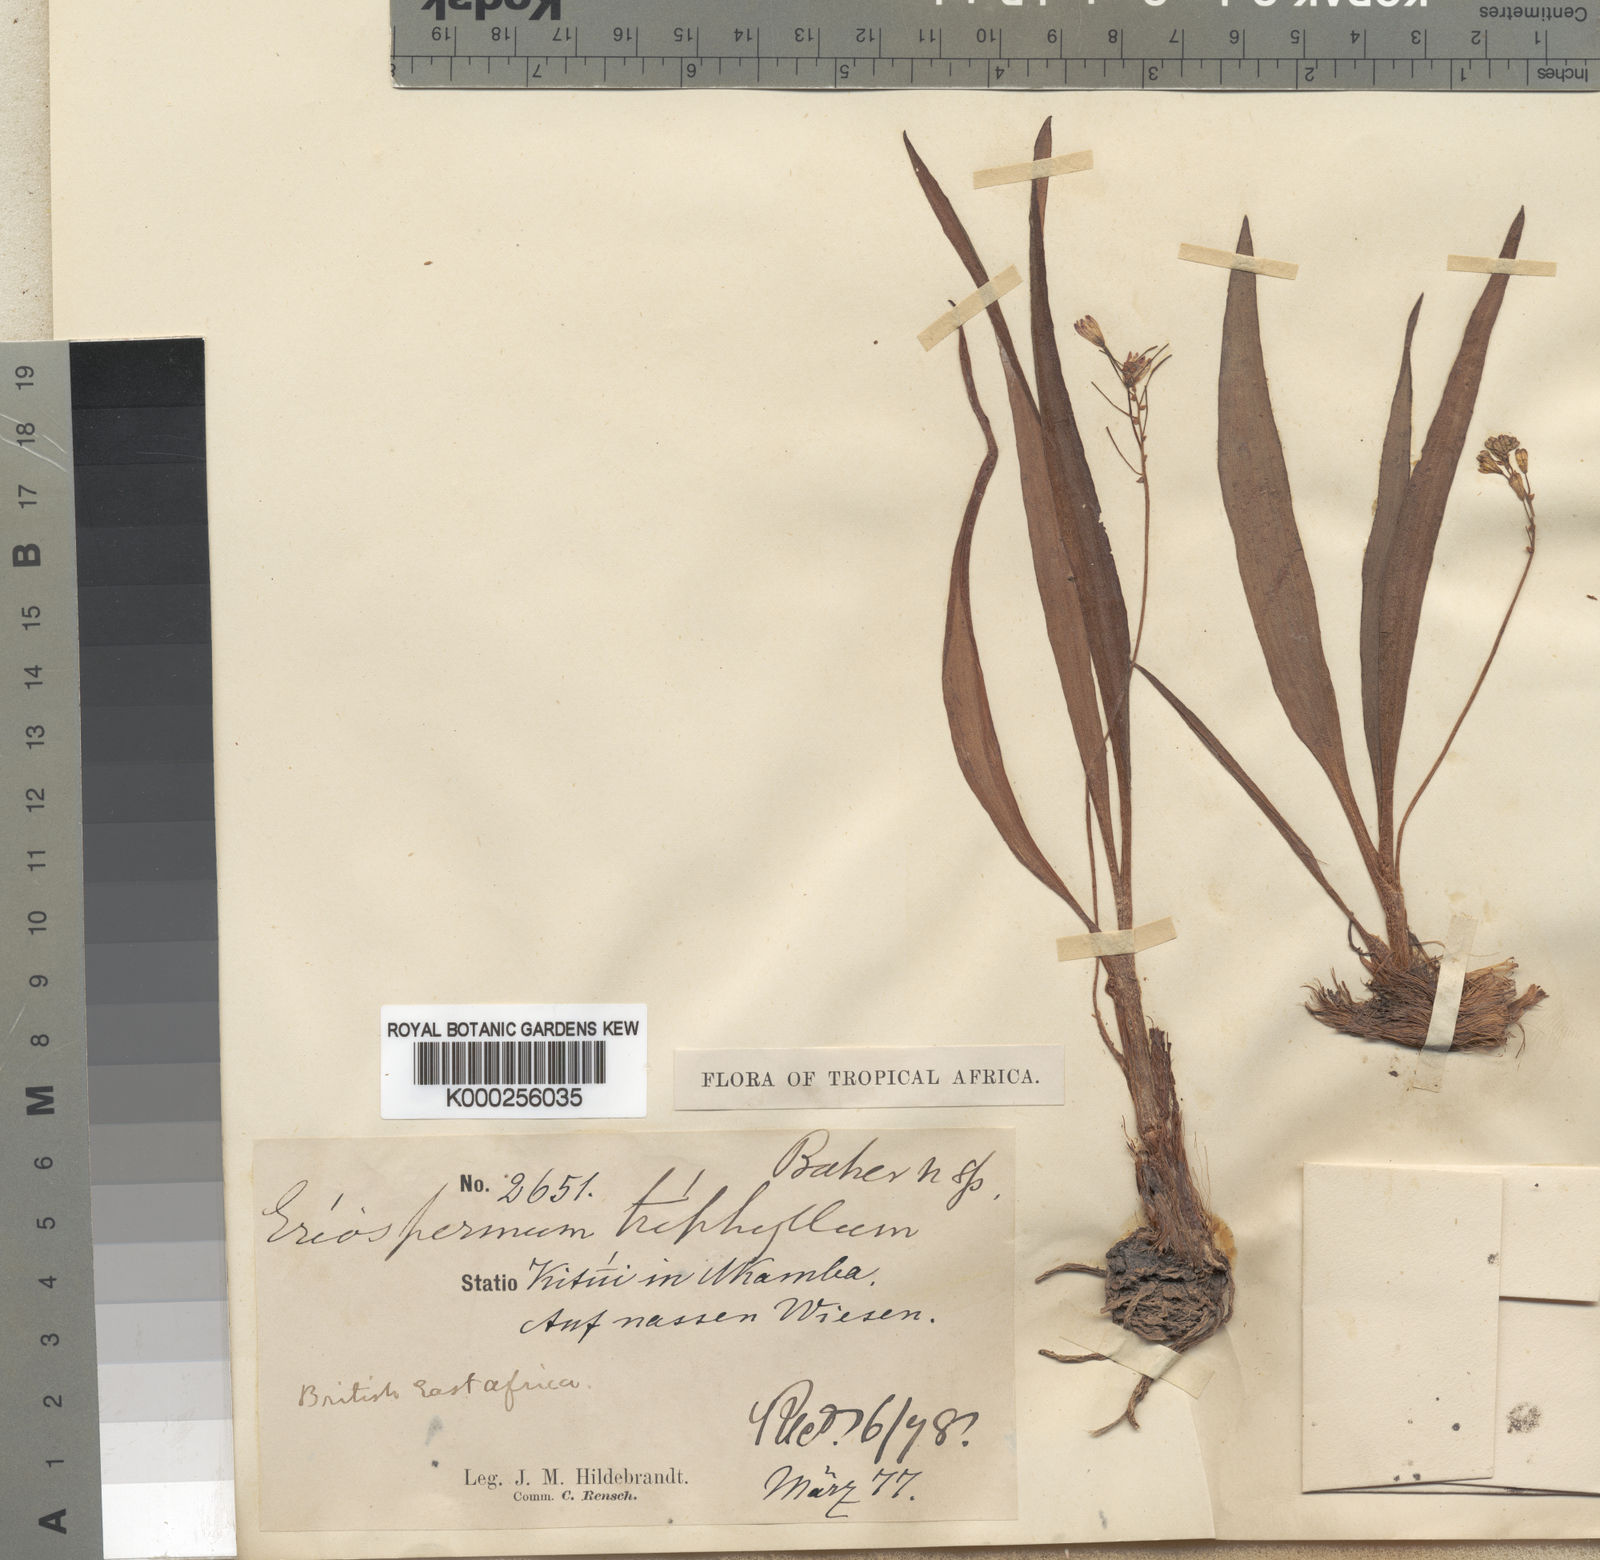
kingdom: Plantae
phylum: Tracheophyta
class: Liliopsida
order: Asparagales
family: Asparagaceae
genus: Eriospermum
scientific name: Eriospermum triphyllum
